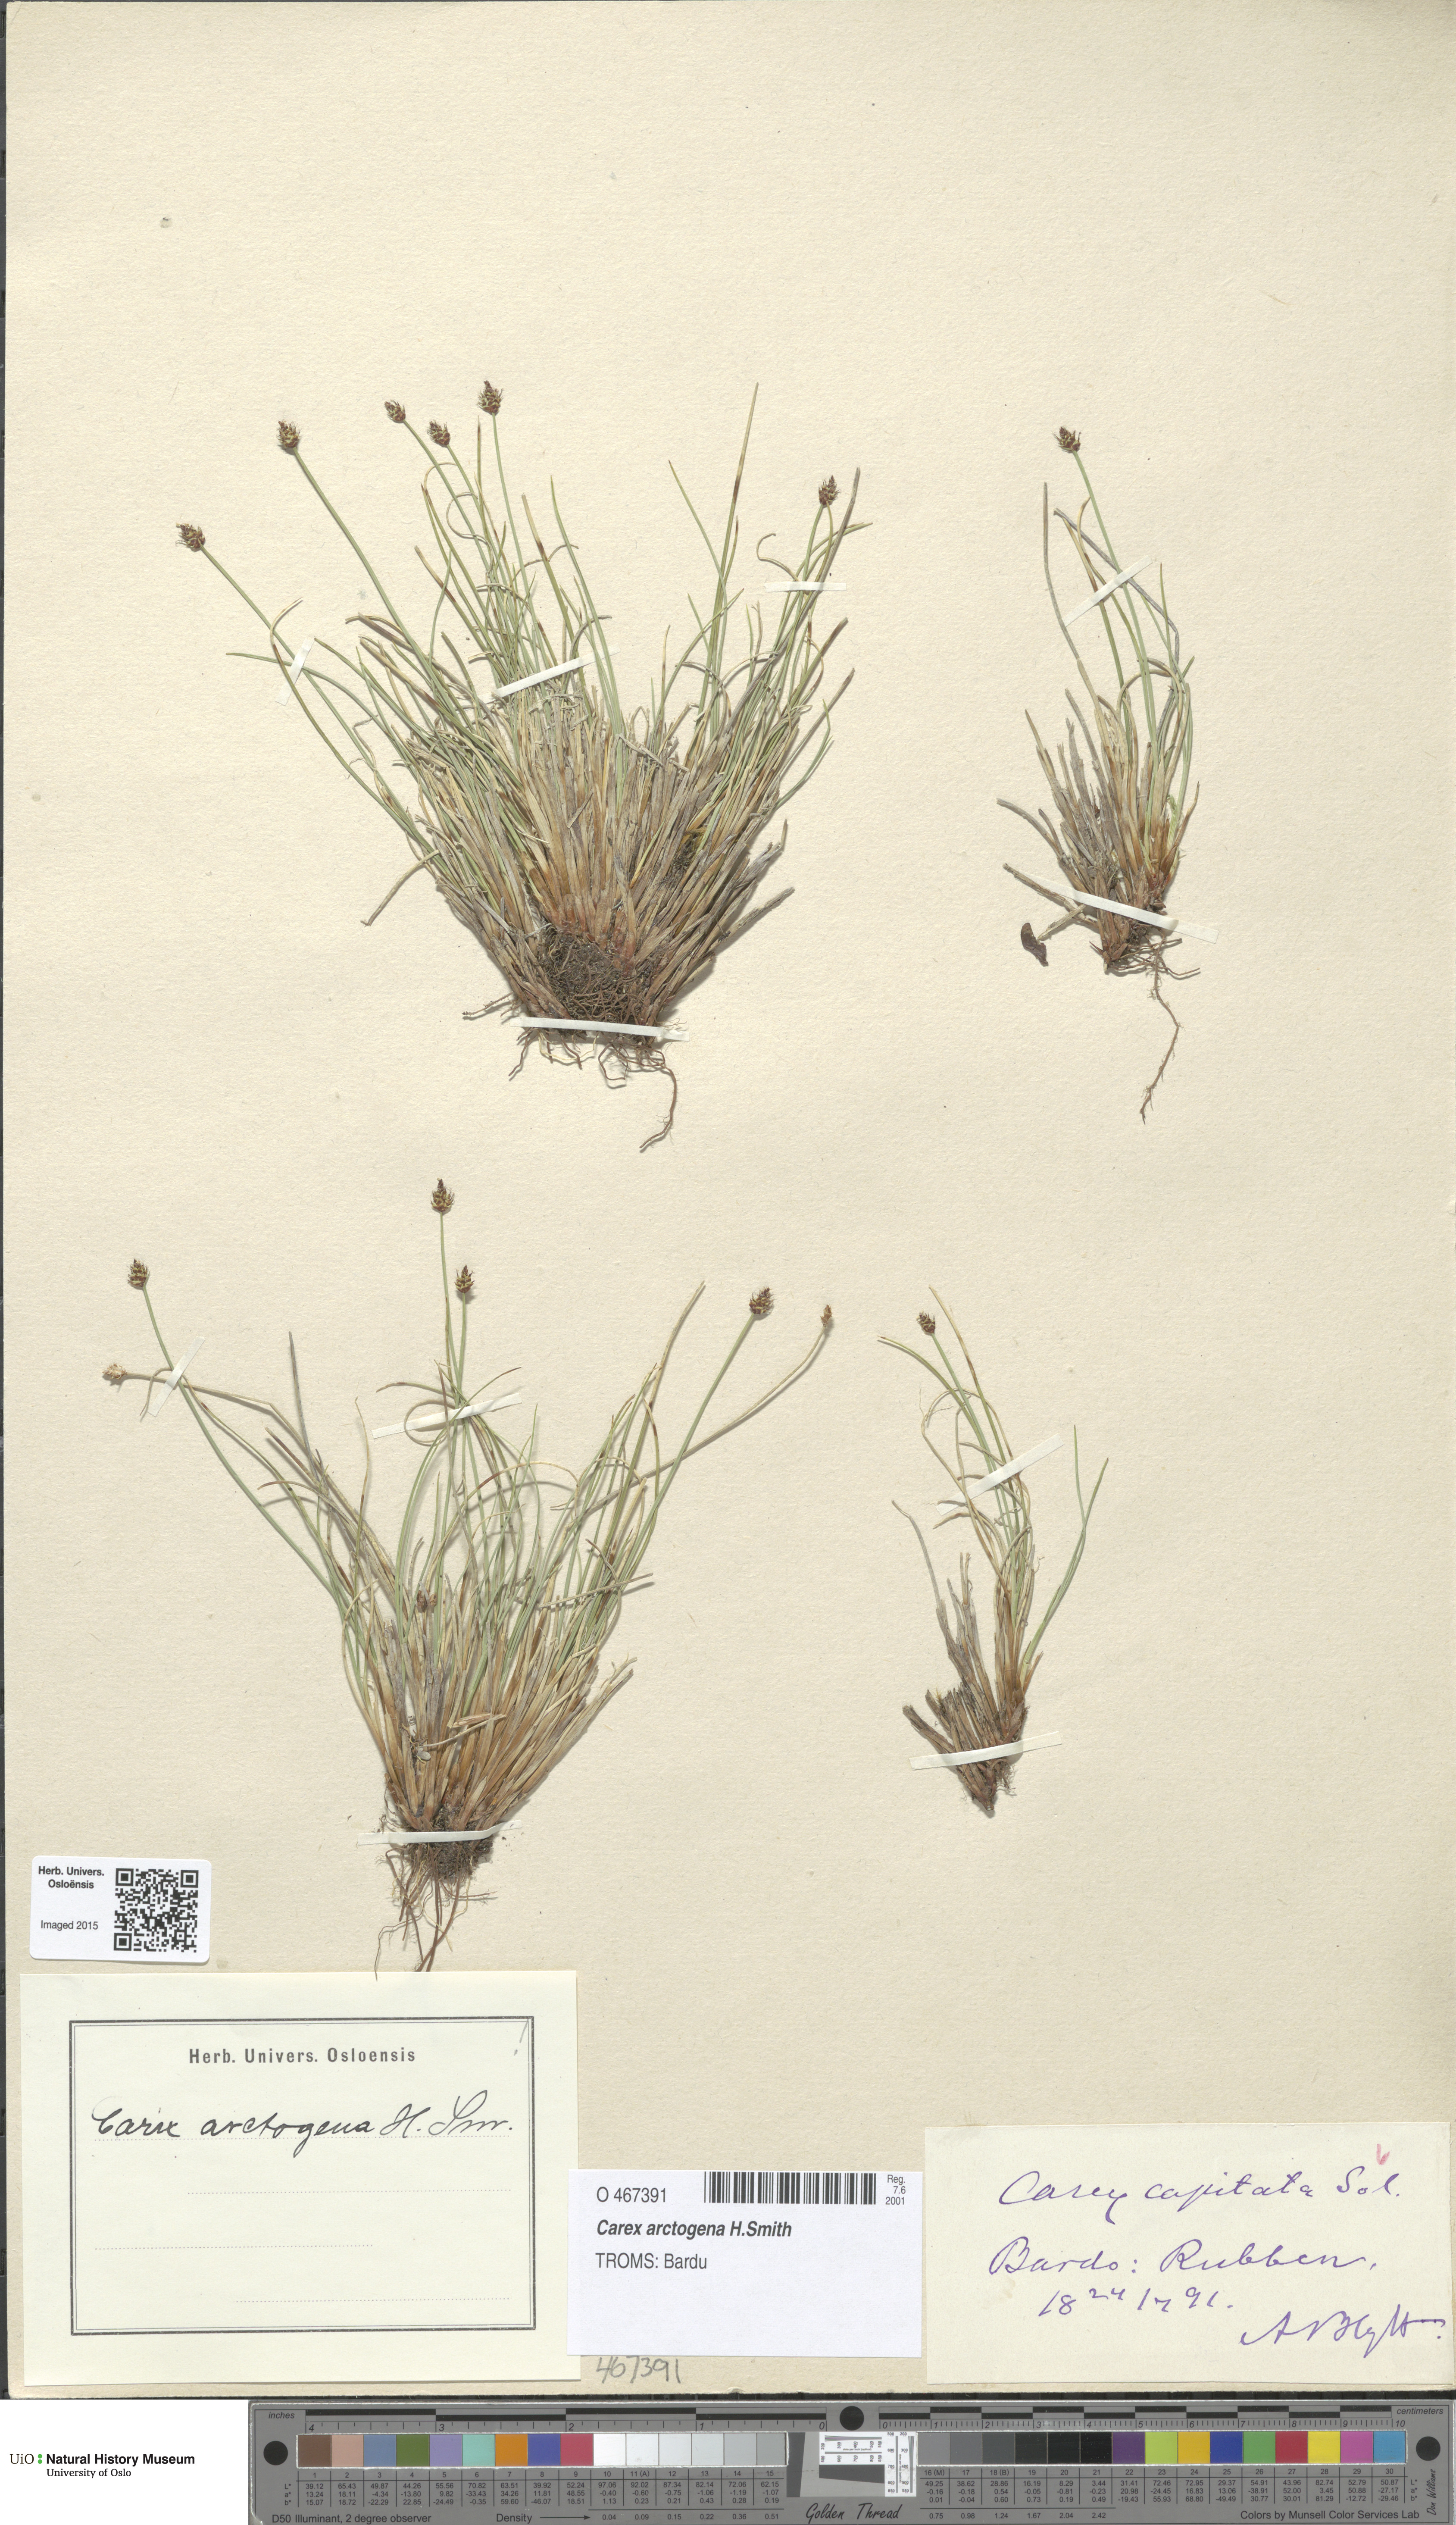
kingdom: Plantae
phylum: Tracheophyta
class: Liliopsida
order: Poales
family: Cyperaceae
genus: Carex
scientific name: Carex arctogena
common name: Black sedge
